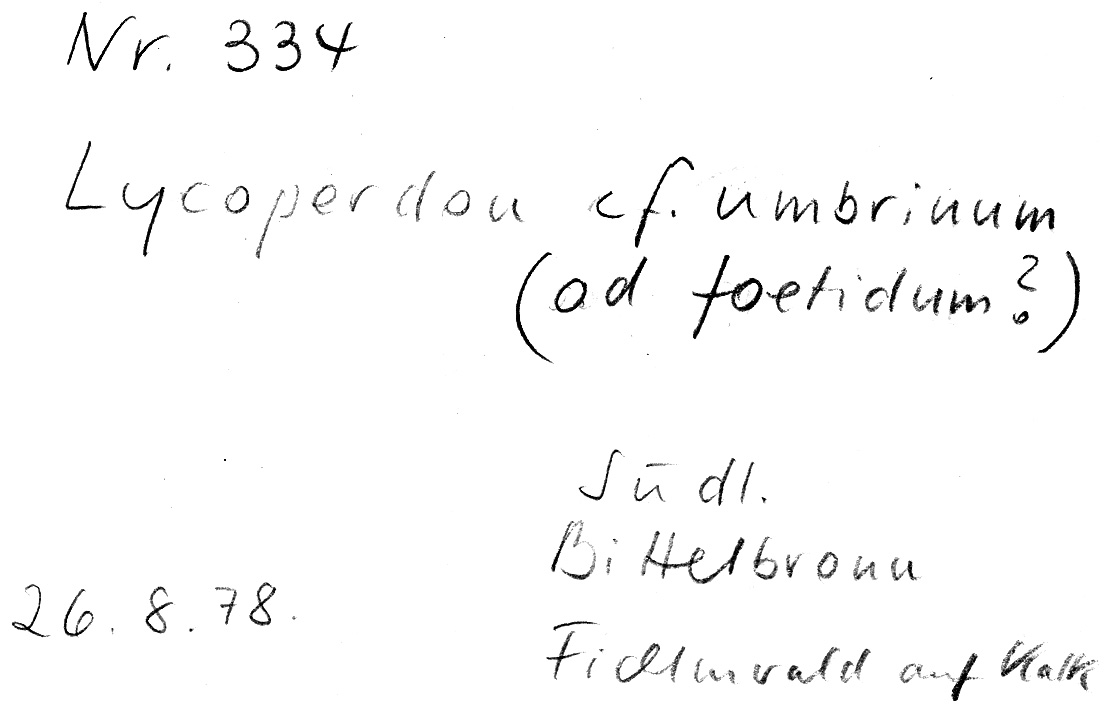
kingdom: Fungi
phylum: Basidiomycota
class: Agaricomycetes
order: Agaricales
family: Lycoperdaceae
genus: Lycoperdon
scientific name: Lycoperdon umbrinum
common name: Umber-brown puffball
